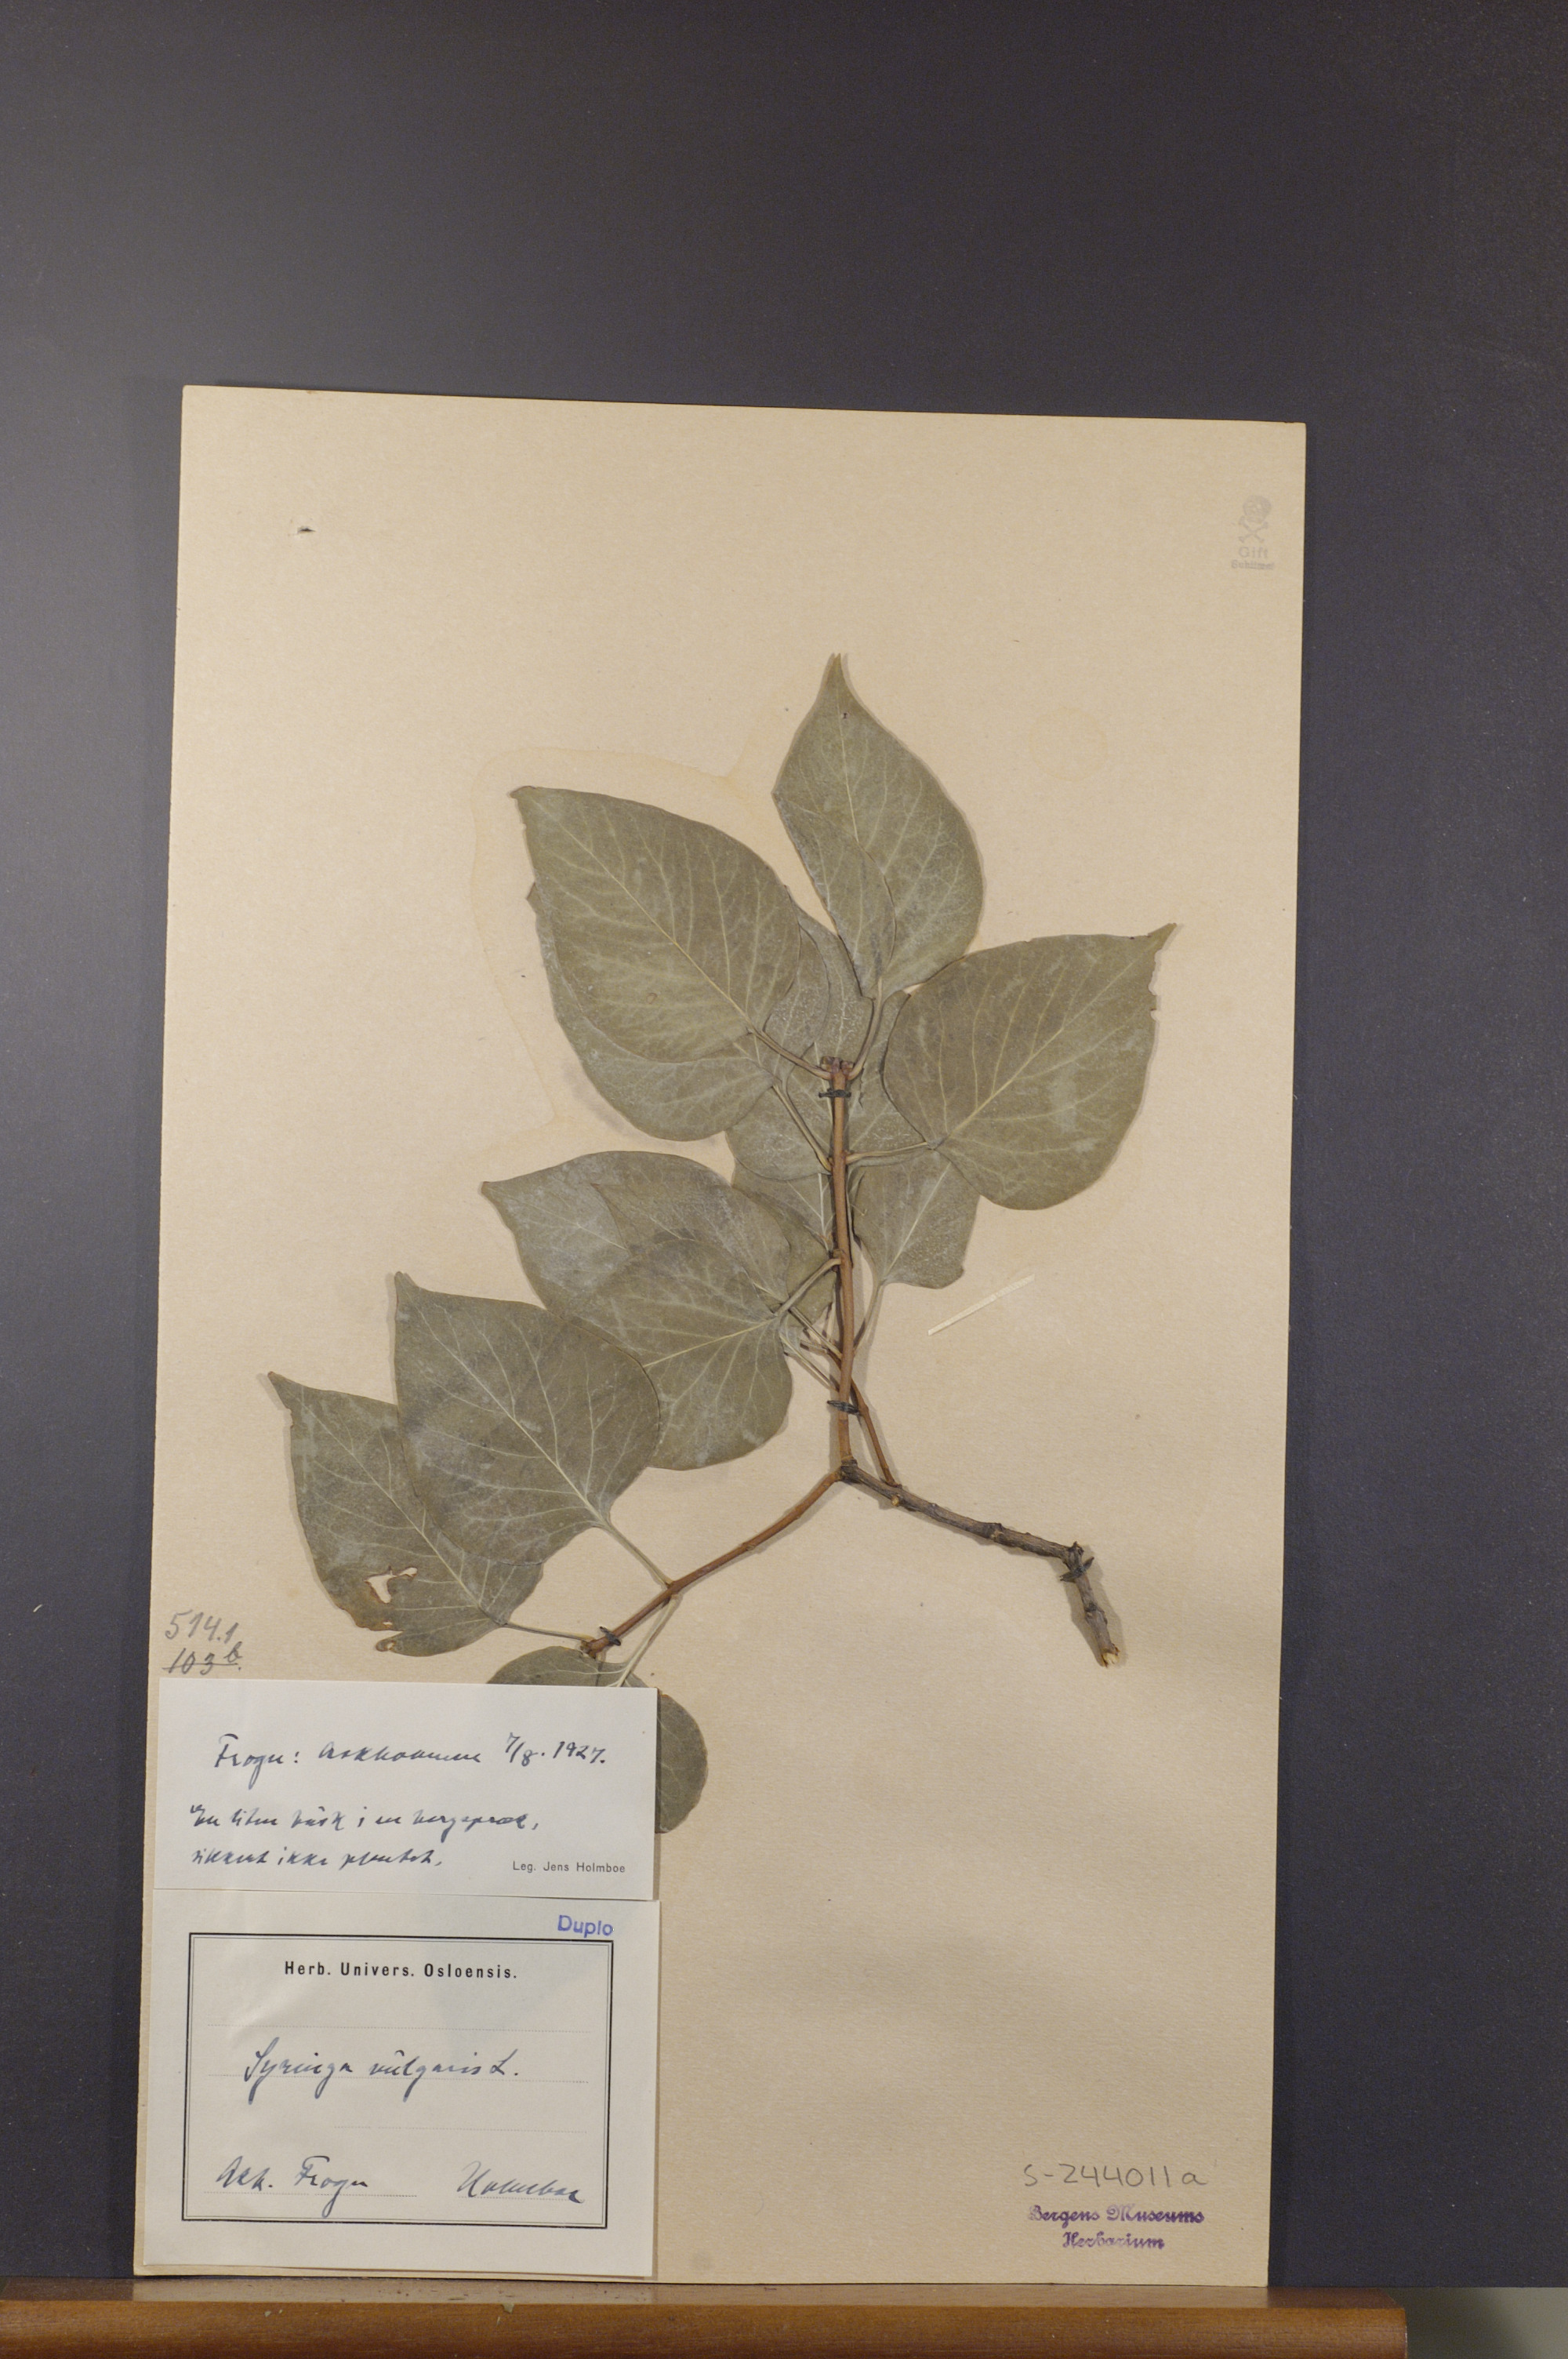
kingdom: Plantae
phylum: Tracheophyta
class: Magnoliopsida
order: Lamiales
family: Oleaceae
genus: Syringa
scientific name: Syringa vulgaris
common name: Common lilac
